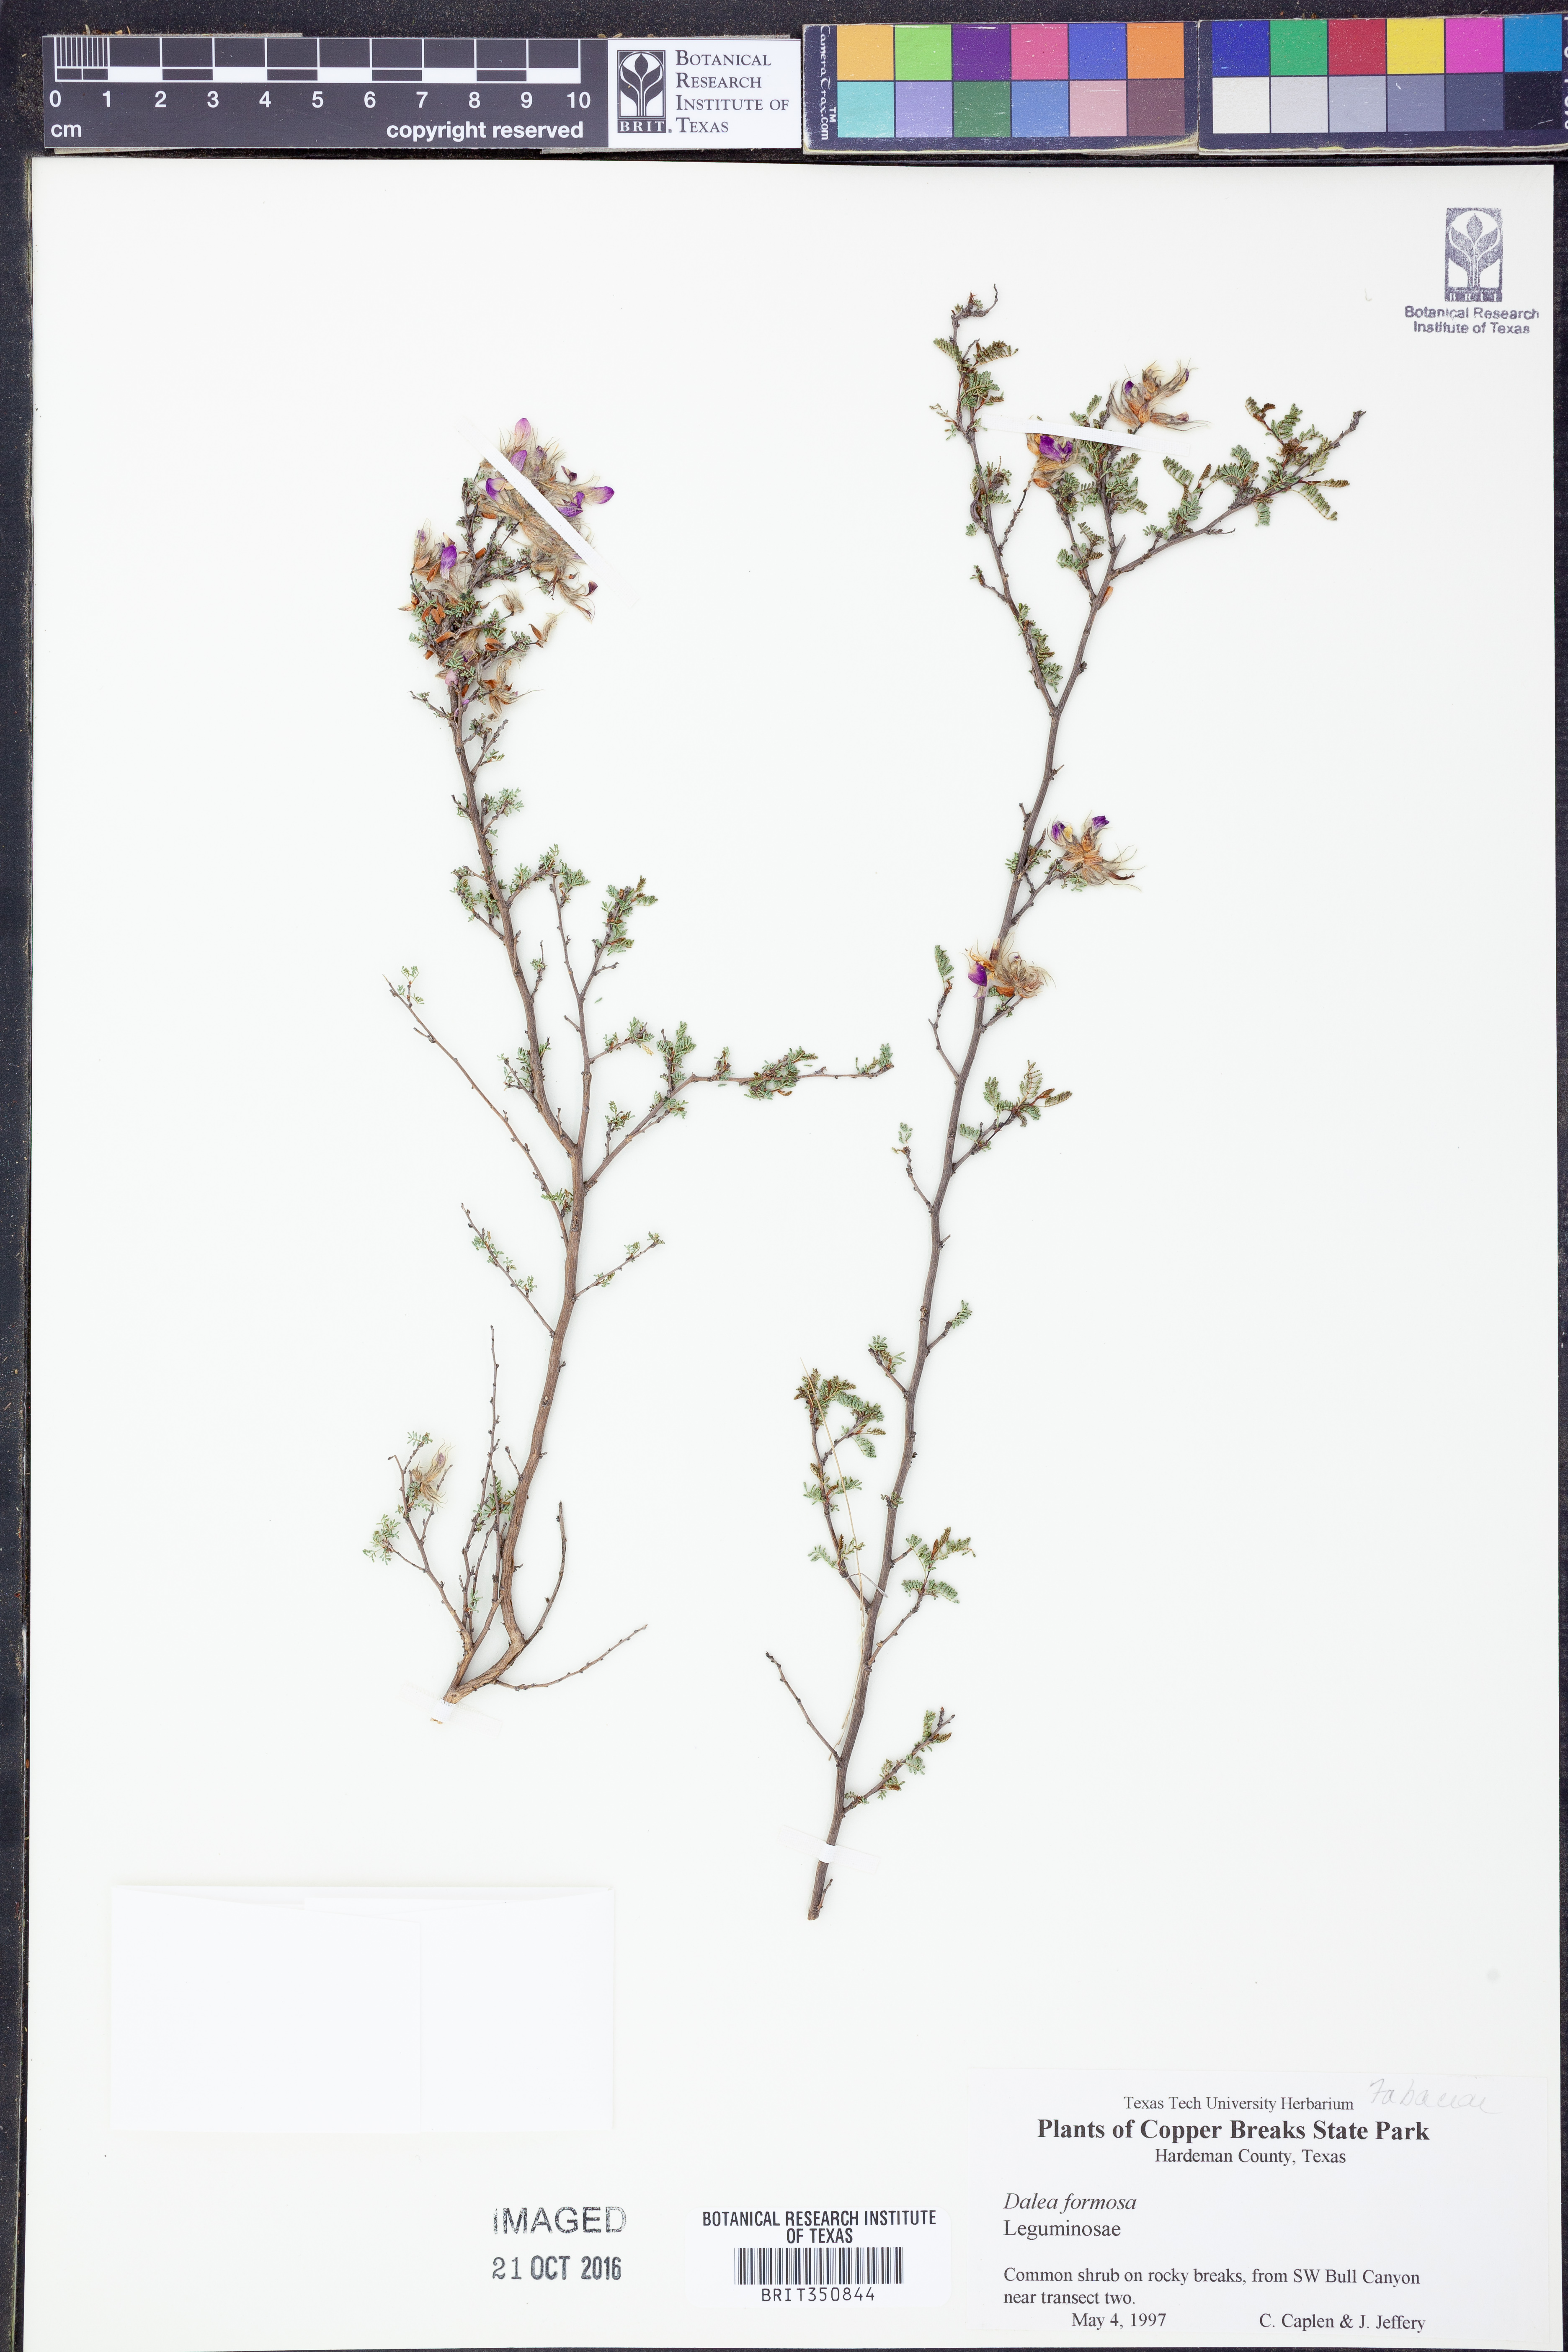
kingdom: Plantae
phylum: Tracheophyta
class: Magnoliopsida
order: Fabales
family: Fabaceae
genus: Dalea
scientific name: Dalea formosa
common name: Feather-plume dalea
